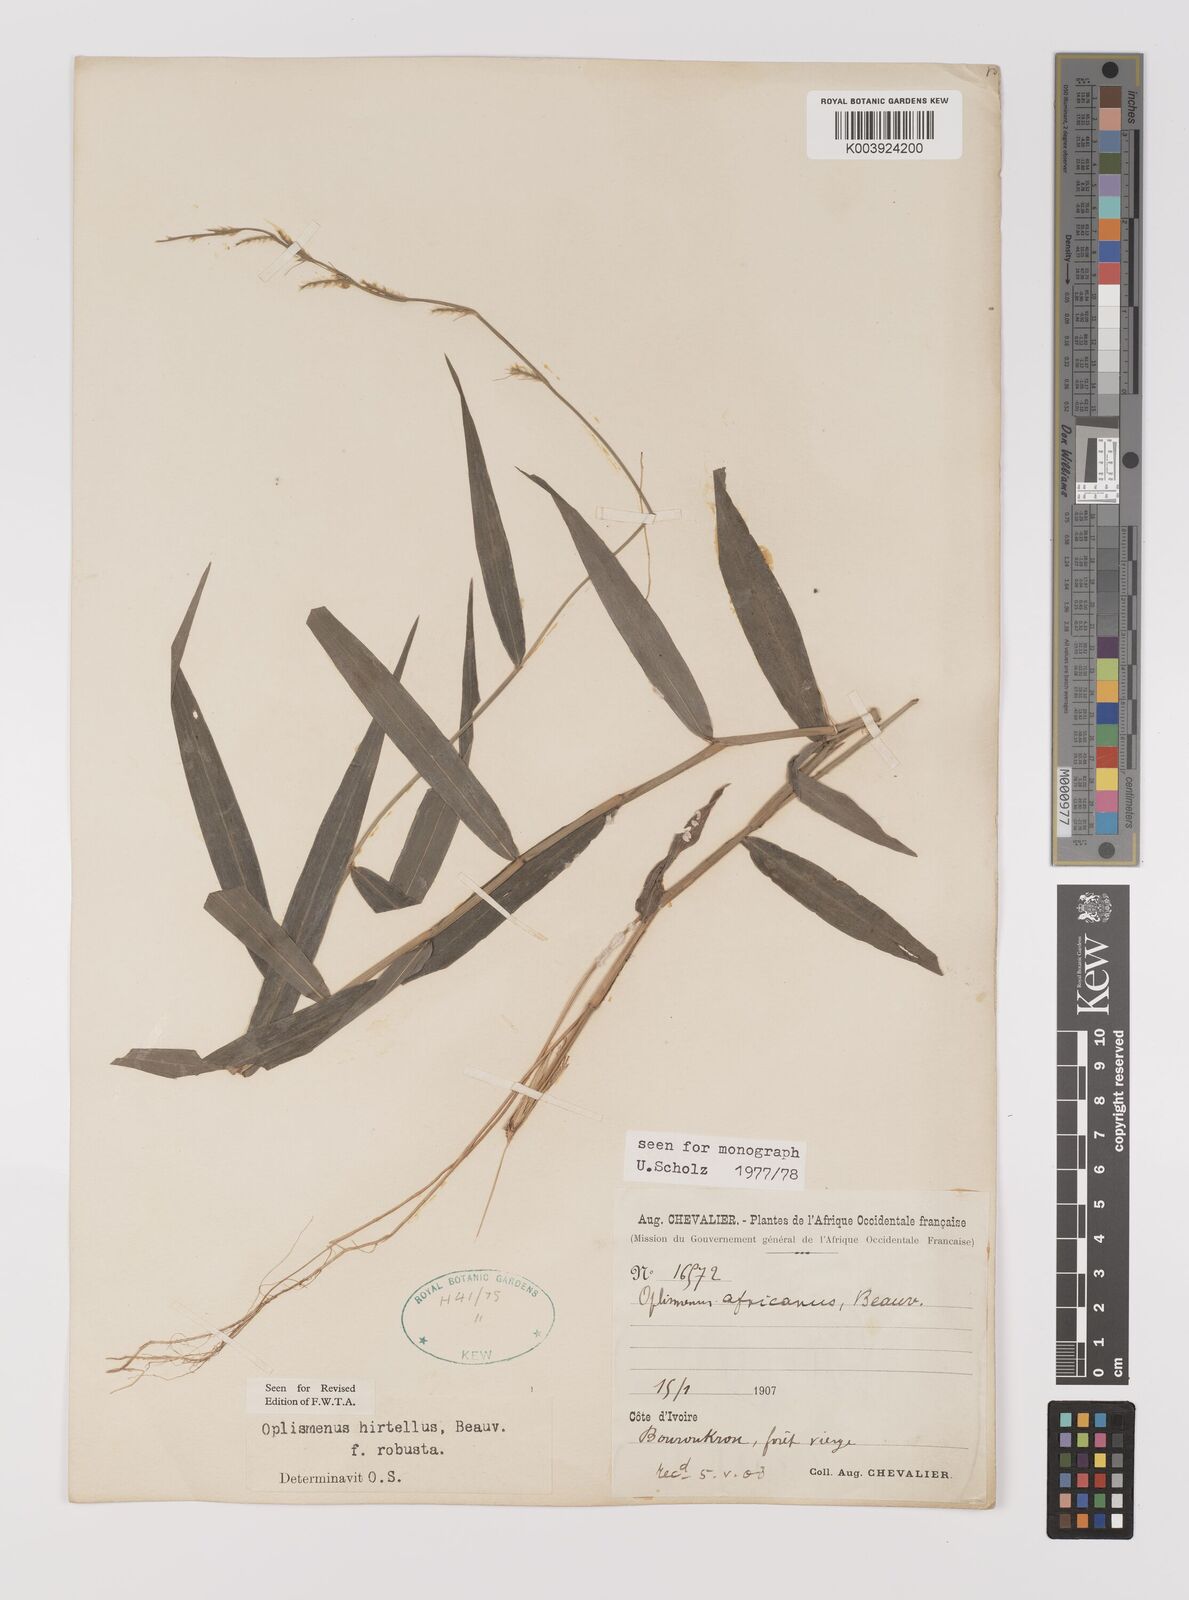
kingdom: Plantae
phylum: Tracheophyta
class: Liliopsida
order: Poales
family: Poaceae
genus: Oplismenus
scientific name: Oplismenus hirtellus
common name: Basketgrass
